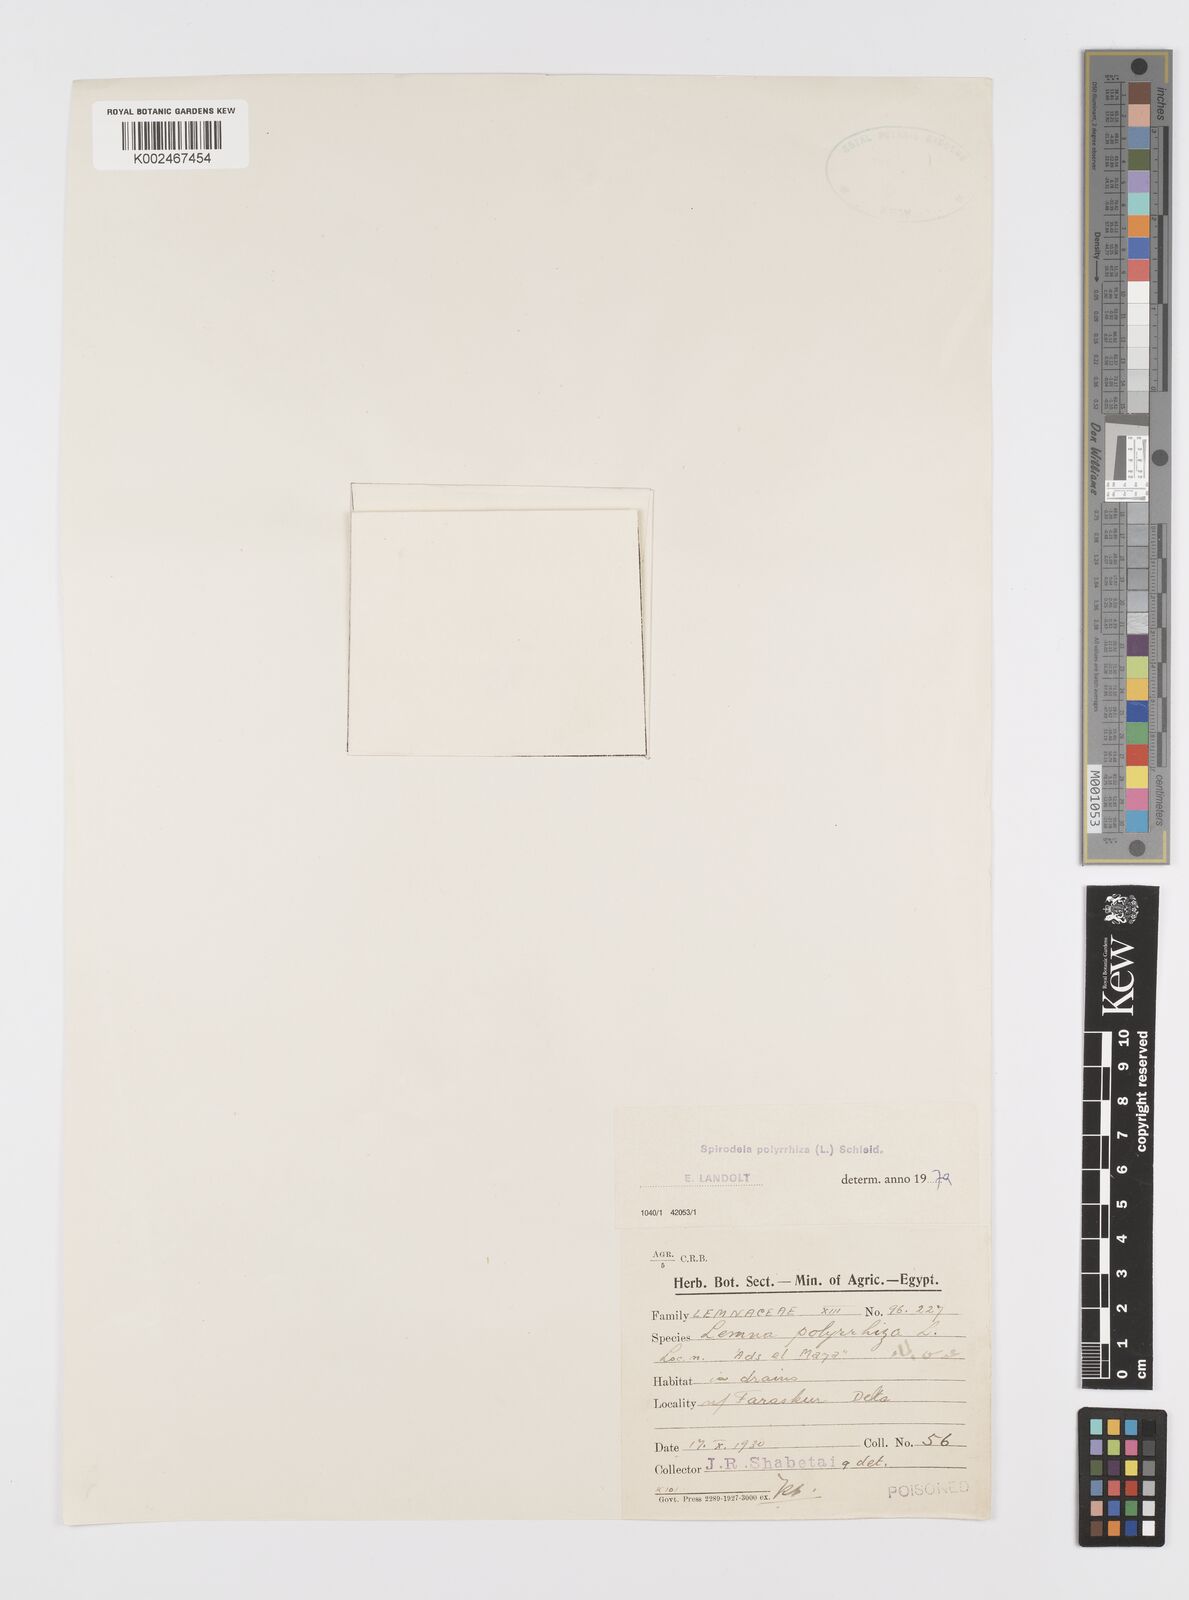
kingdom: Plantae
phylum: Tracheophyta
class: Liliopsida
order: Alismatales
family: Araceae
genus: Spirodela
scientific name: Spirodela polyrhiza
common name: Great duckweed
